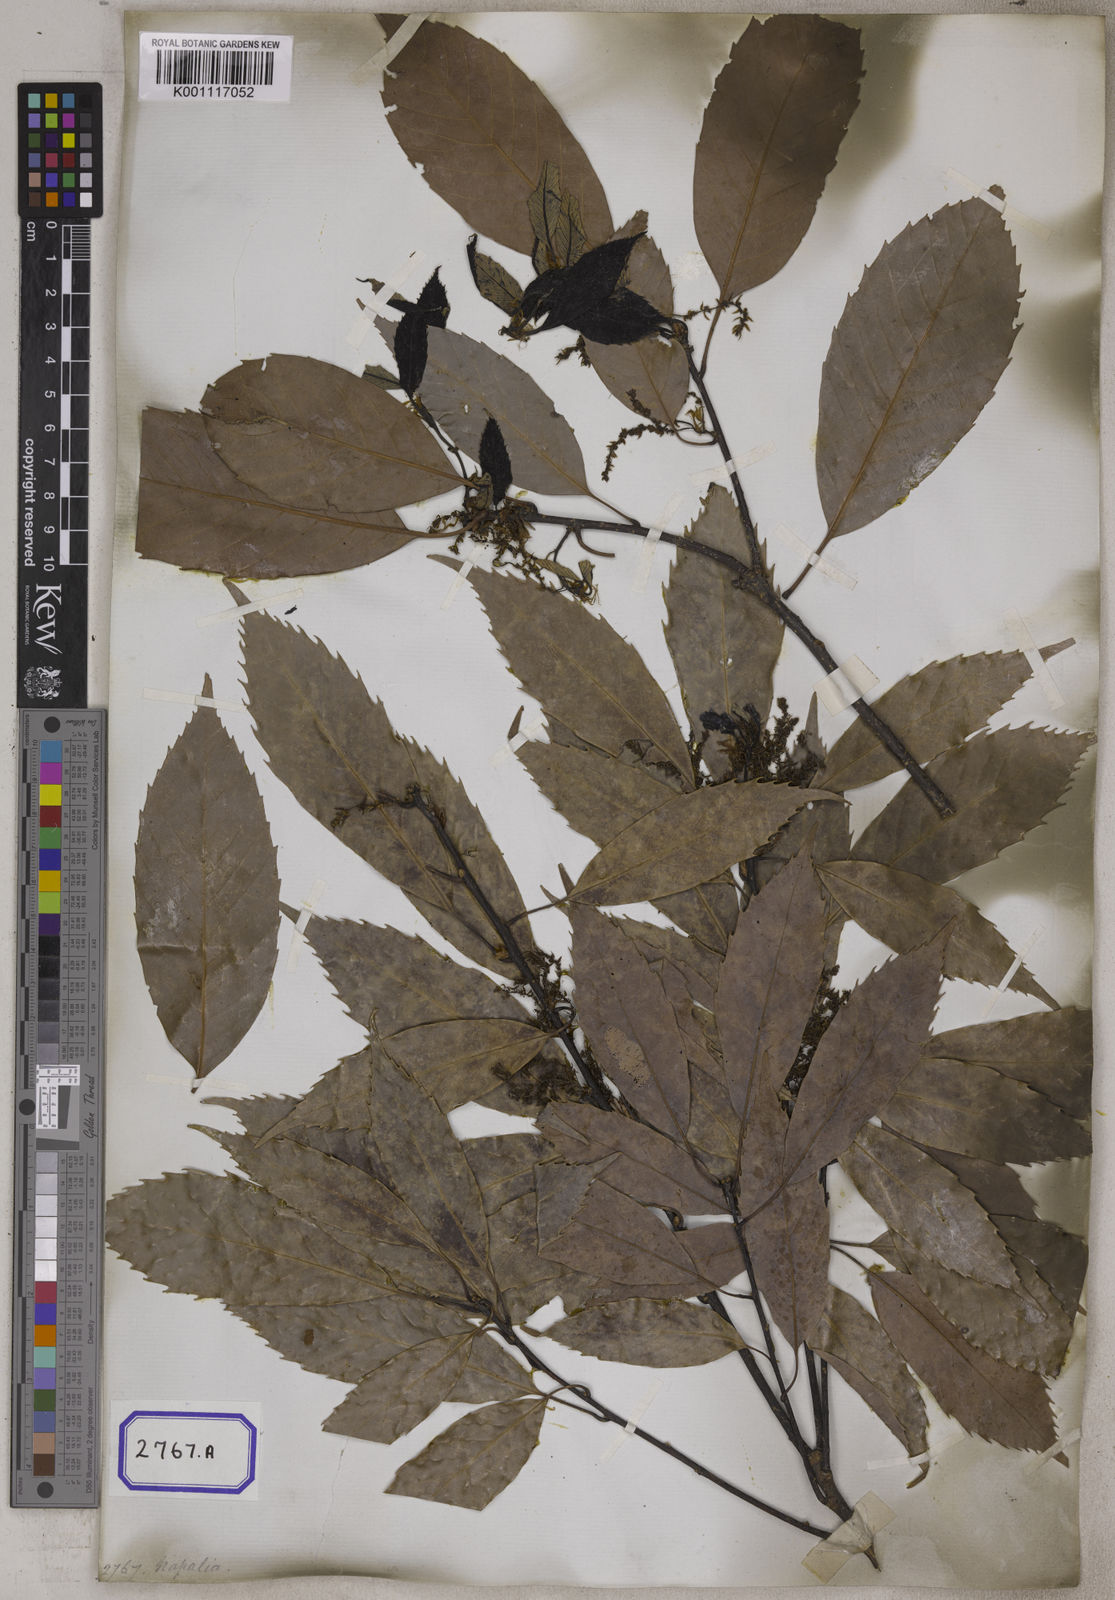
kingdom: Plantae
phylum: Tracheophyta
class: Magnoliopsida
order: Fagales
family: Fagaceae
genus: Quercus
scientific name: Quercus annulata
